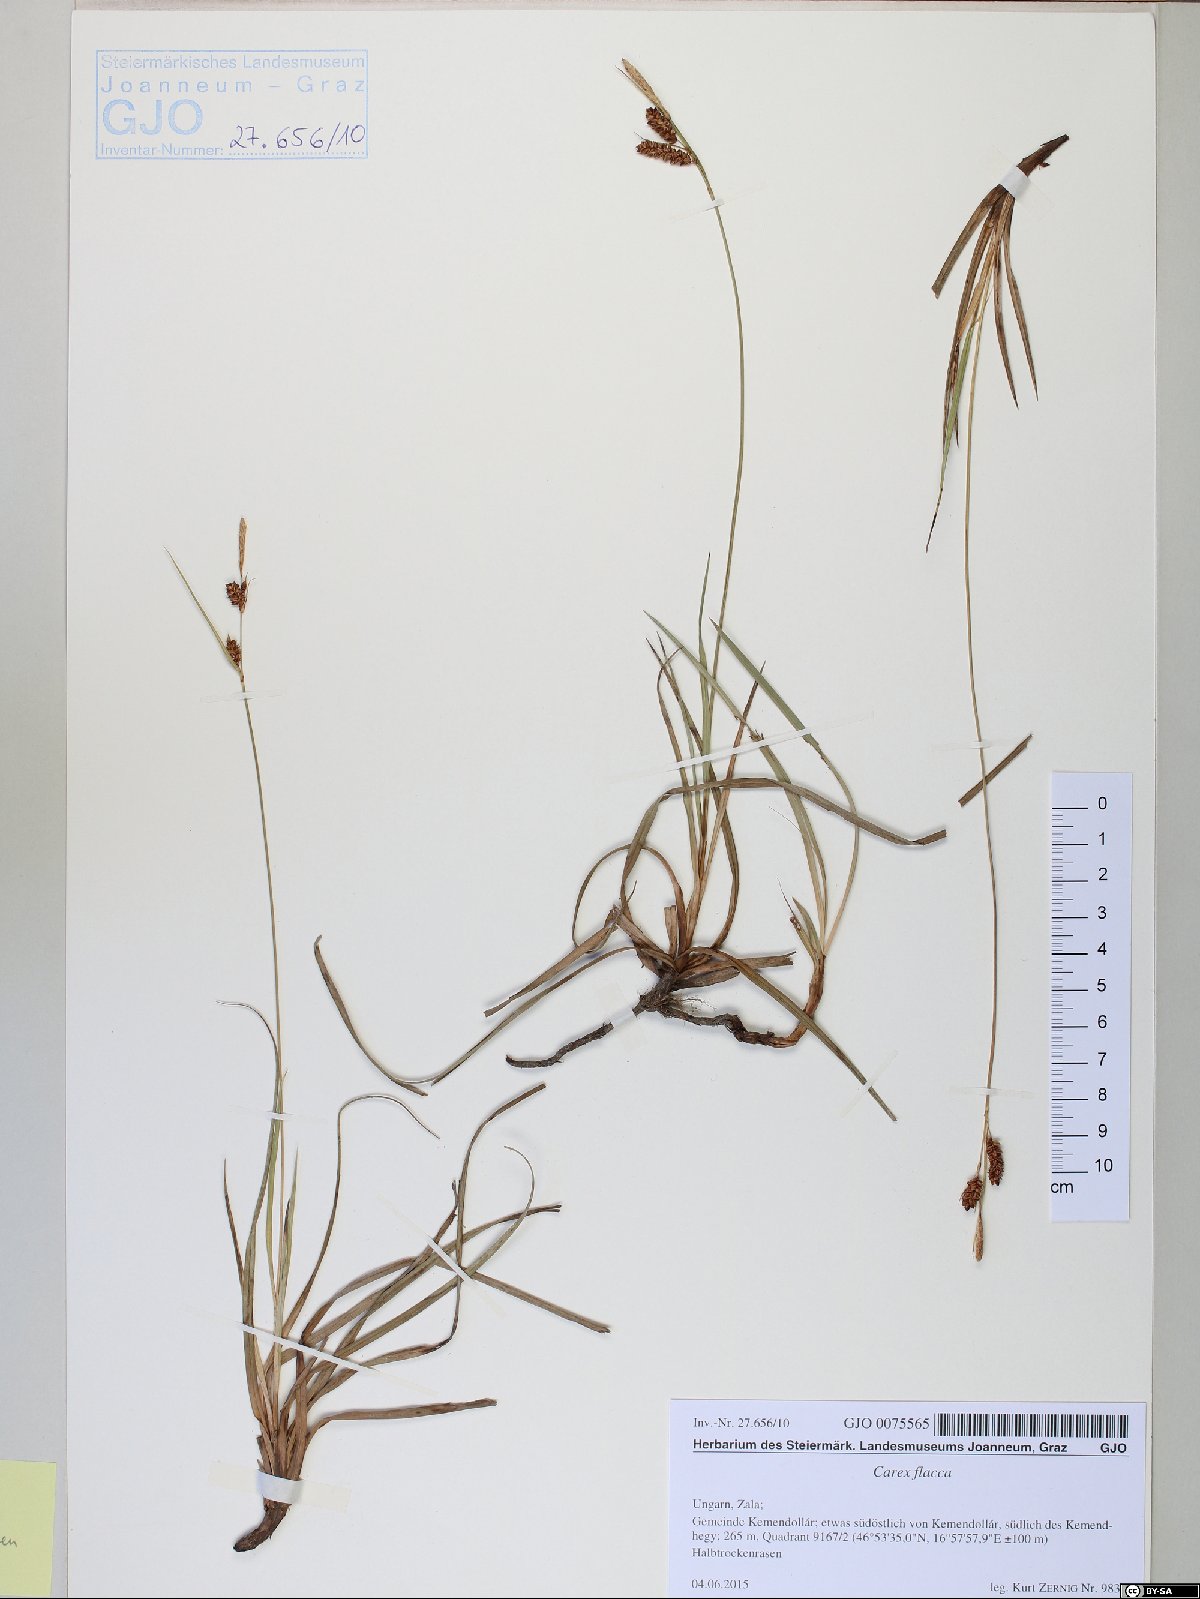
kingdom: Plantae
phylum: Tracheophyta
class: Liliopsida
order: Poales
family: Cyperaceae
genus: Carex
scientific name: Carex flacca
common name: Glaucous sedge
